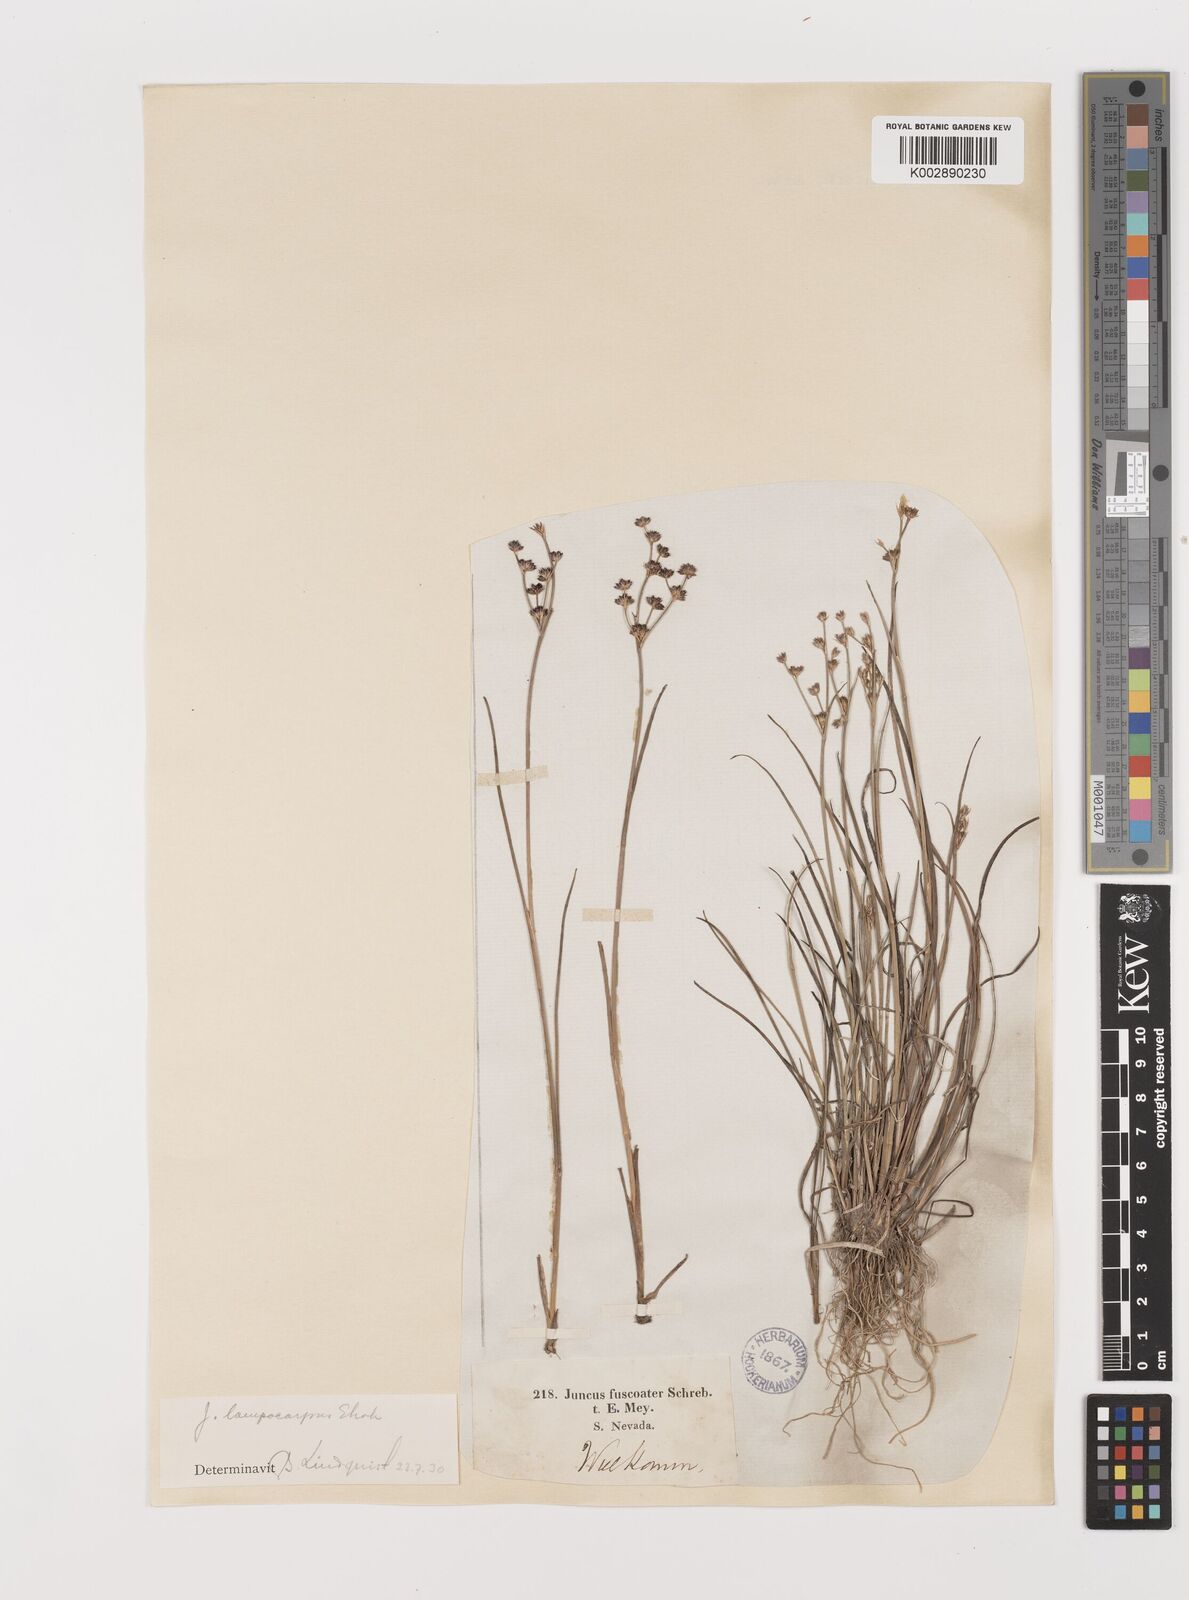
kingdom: Plantae
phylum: Tracheophyta
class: Liliopsida
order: Poales
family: Juncaceae
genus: Juncus
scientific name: Juncus articulatus
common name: Jointed rush
